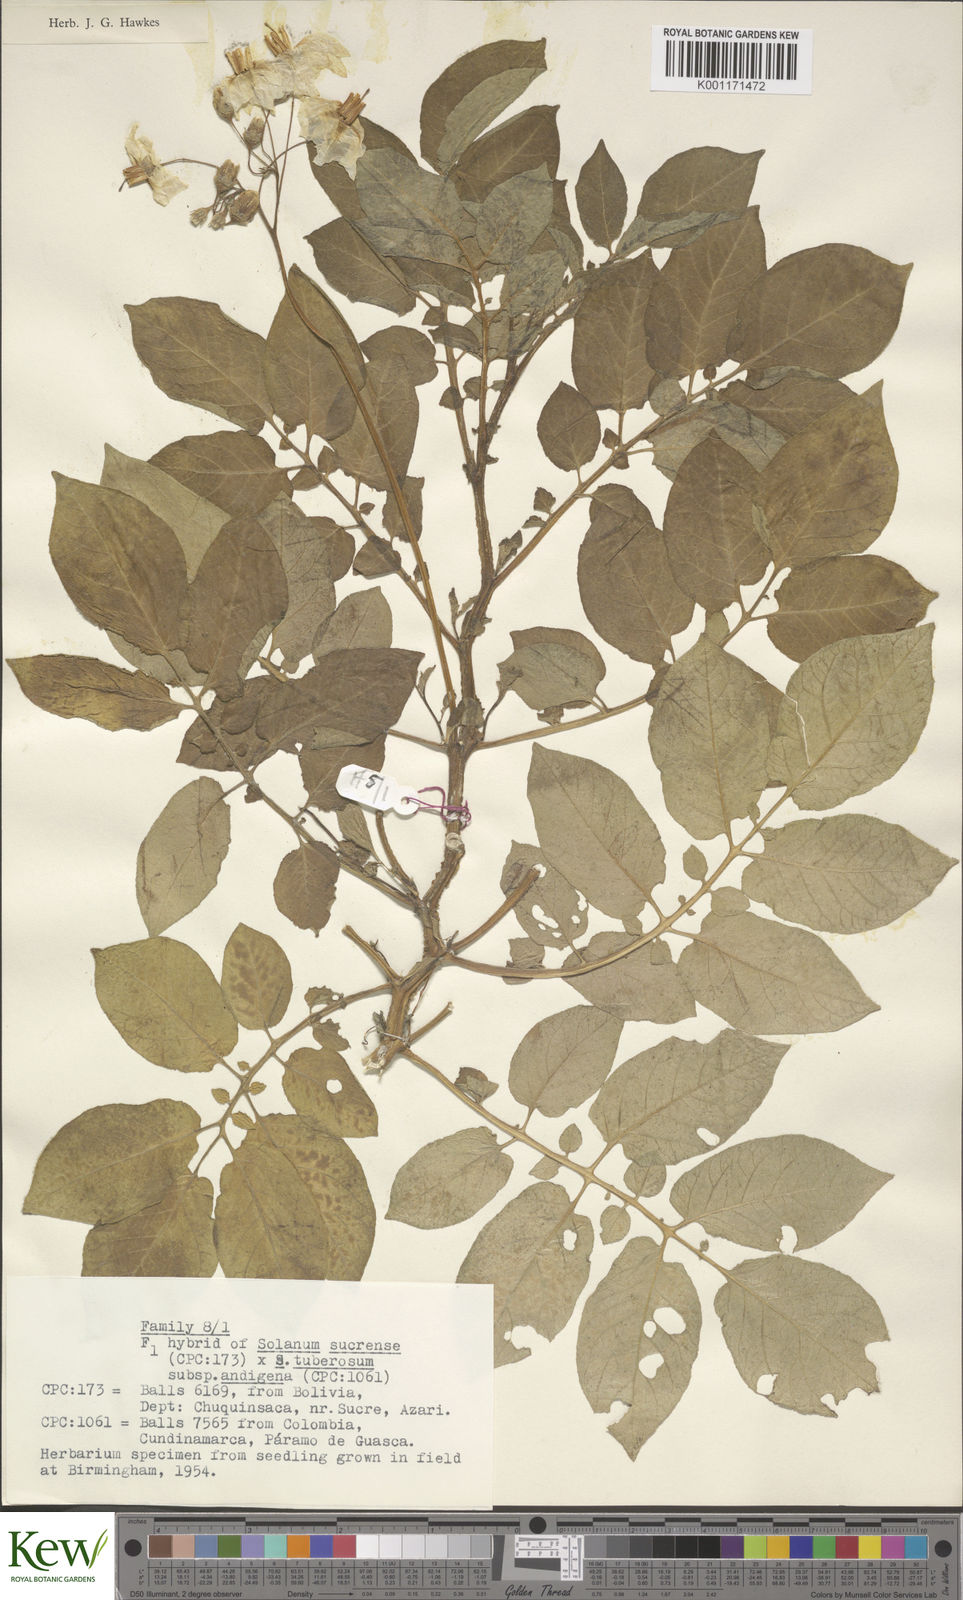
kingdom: Plantae
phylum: Tracheophyta
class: Magnoliopsida
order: Solanales
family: Solanaceae
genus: Solanum
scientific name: Solanum tuberosum
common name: Potato
